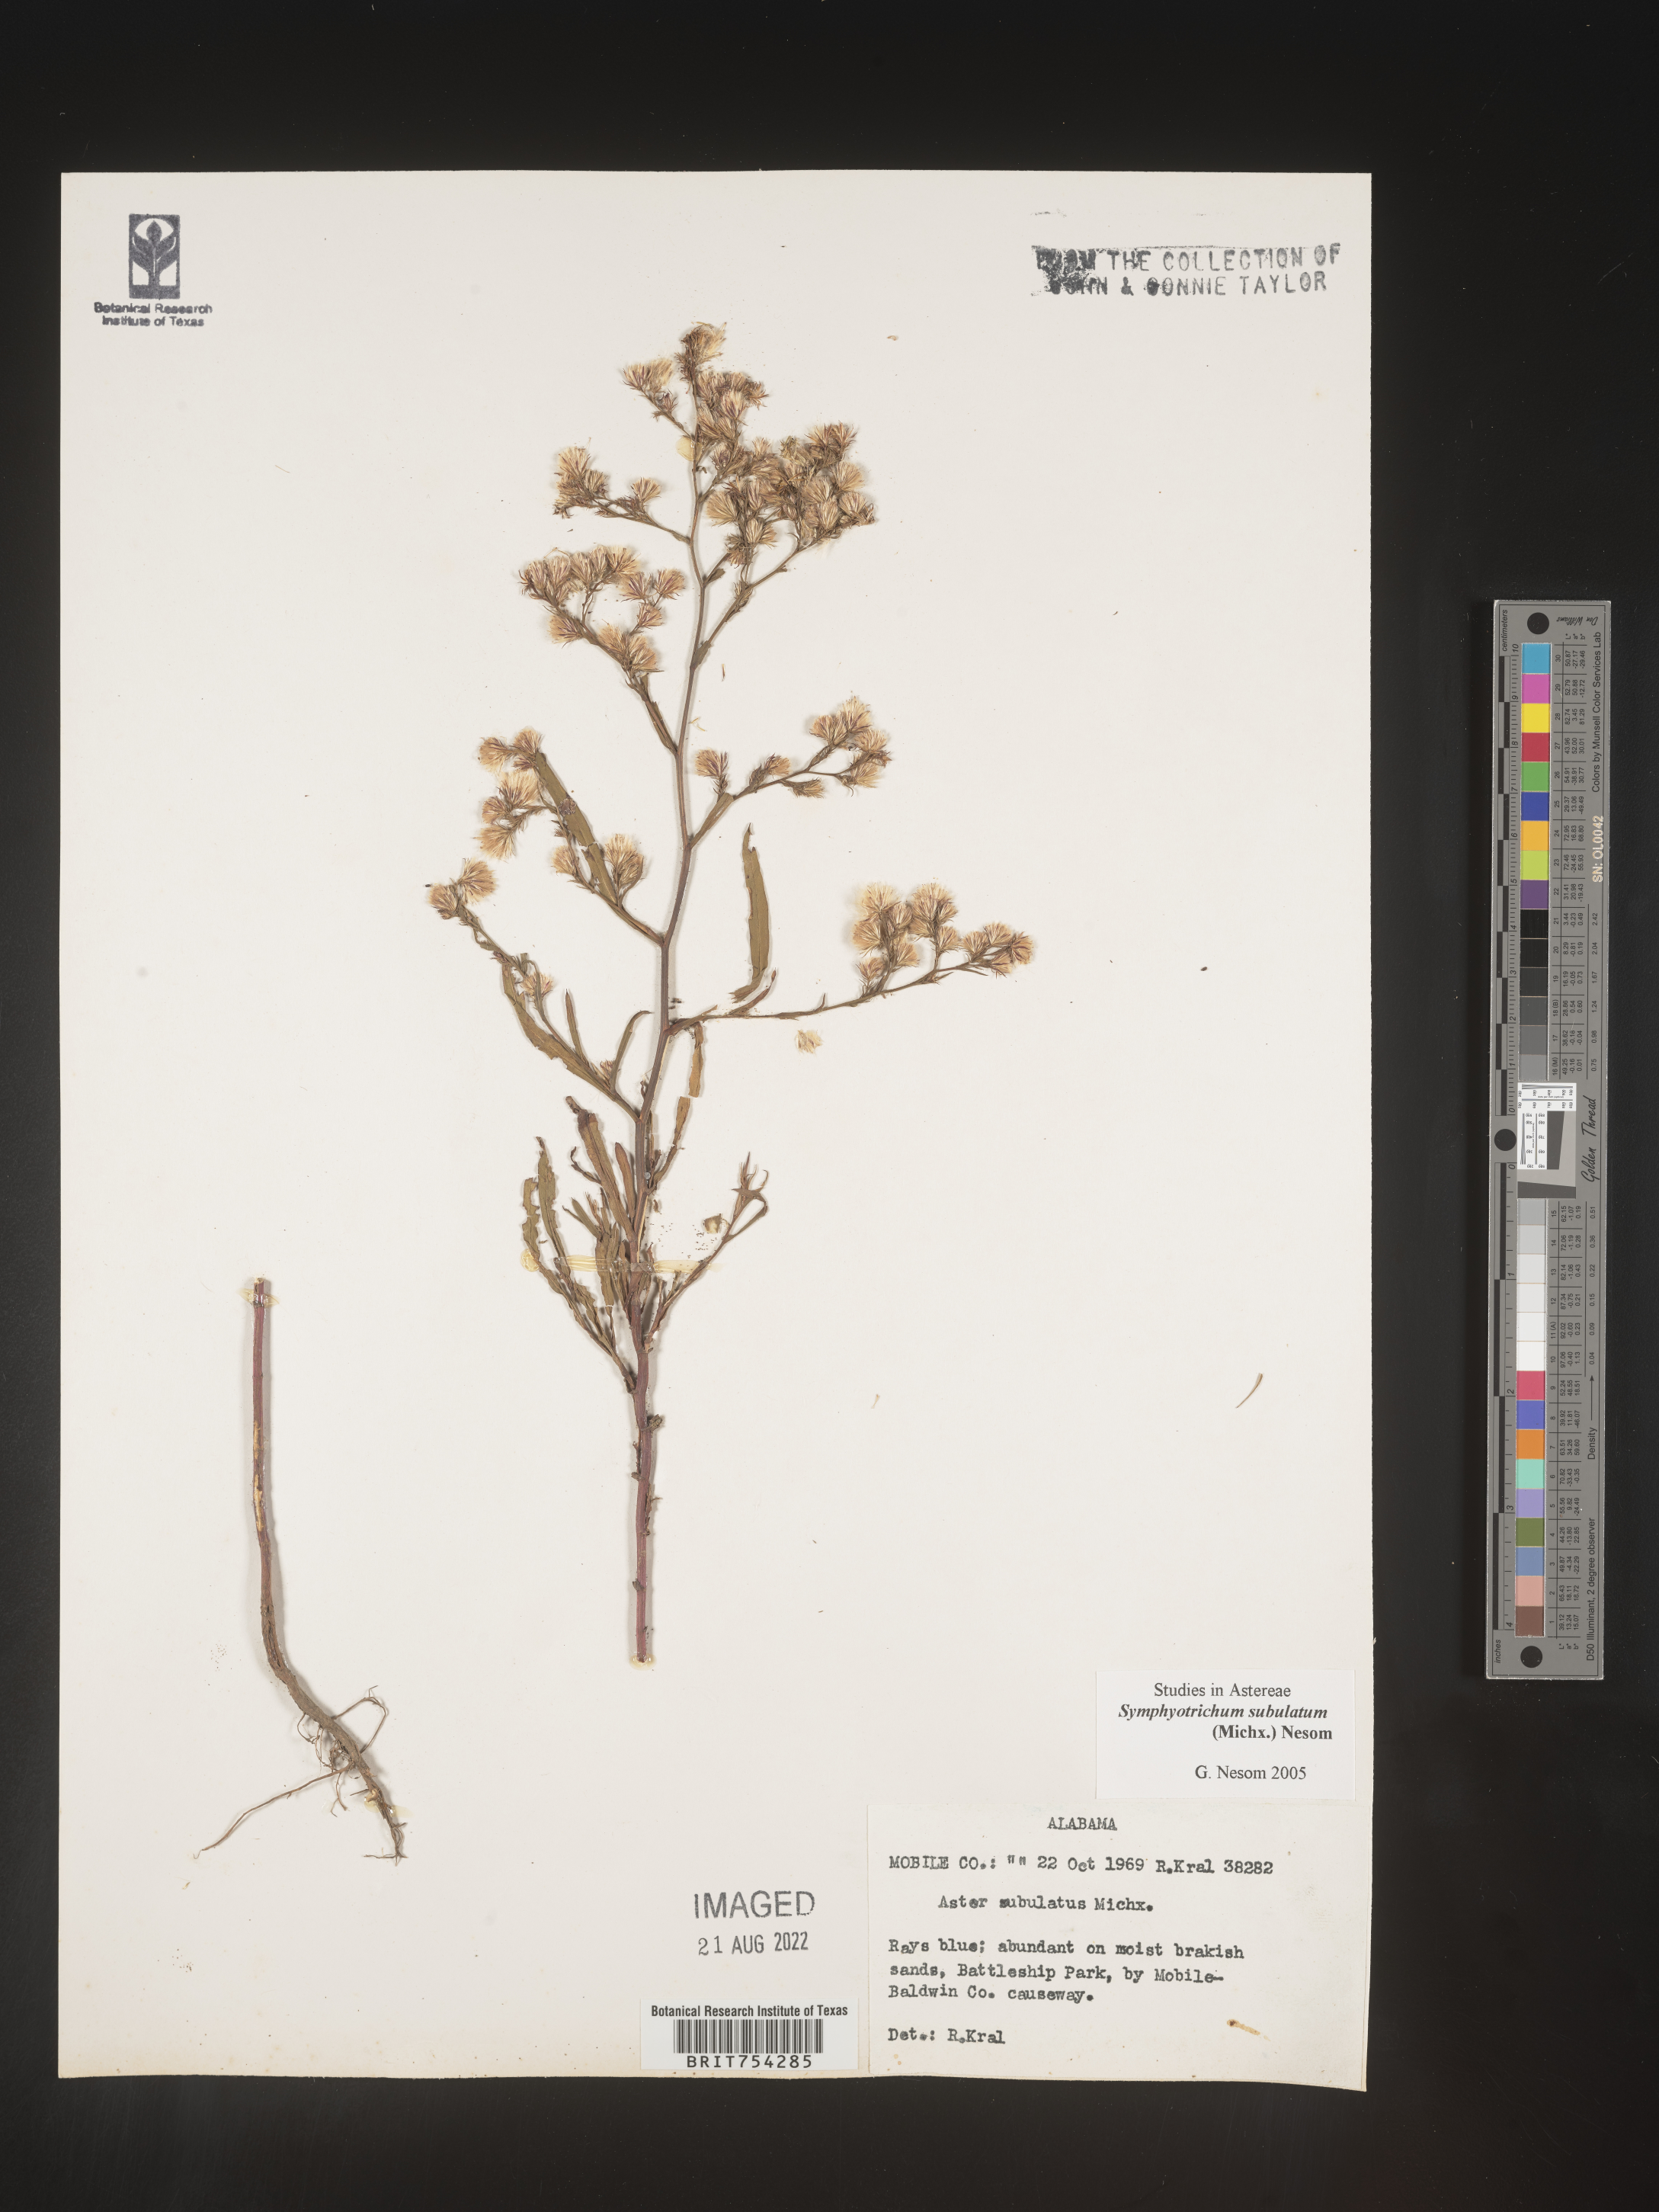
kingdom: Plantae
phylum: Tracheophyta
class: Magnoliopsida
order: Asterales
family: Asteraceae
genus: Symphyotrichum
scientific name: Symphyotrichum subulatum
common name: Annual saltmarsh aster
